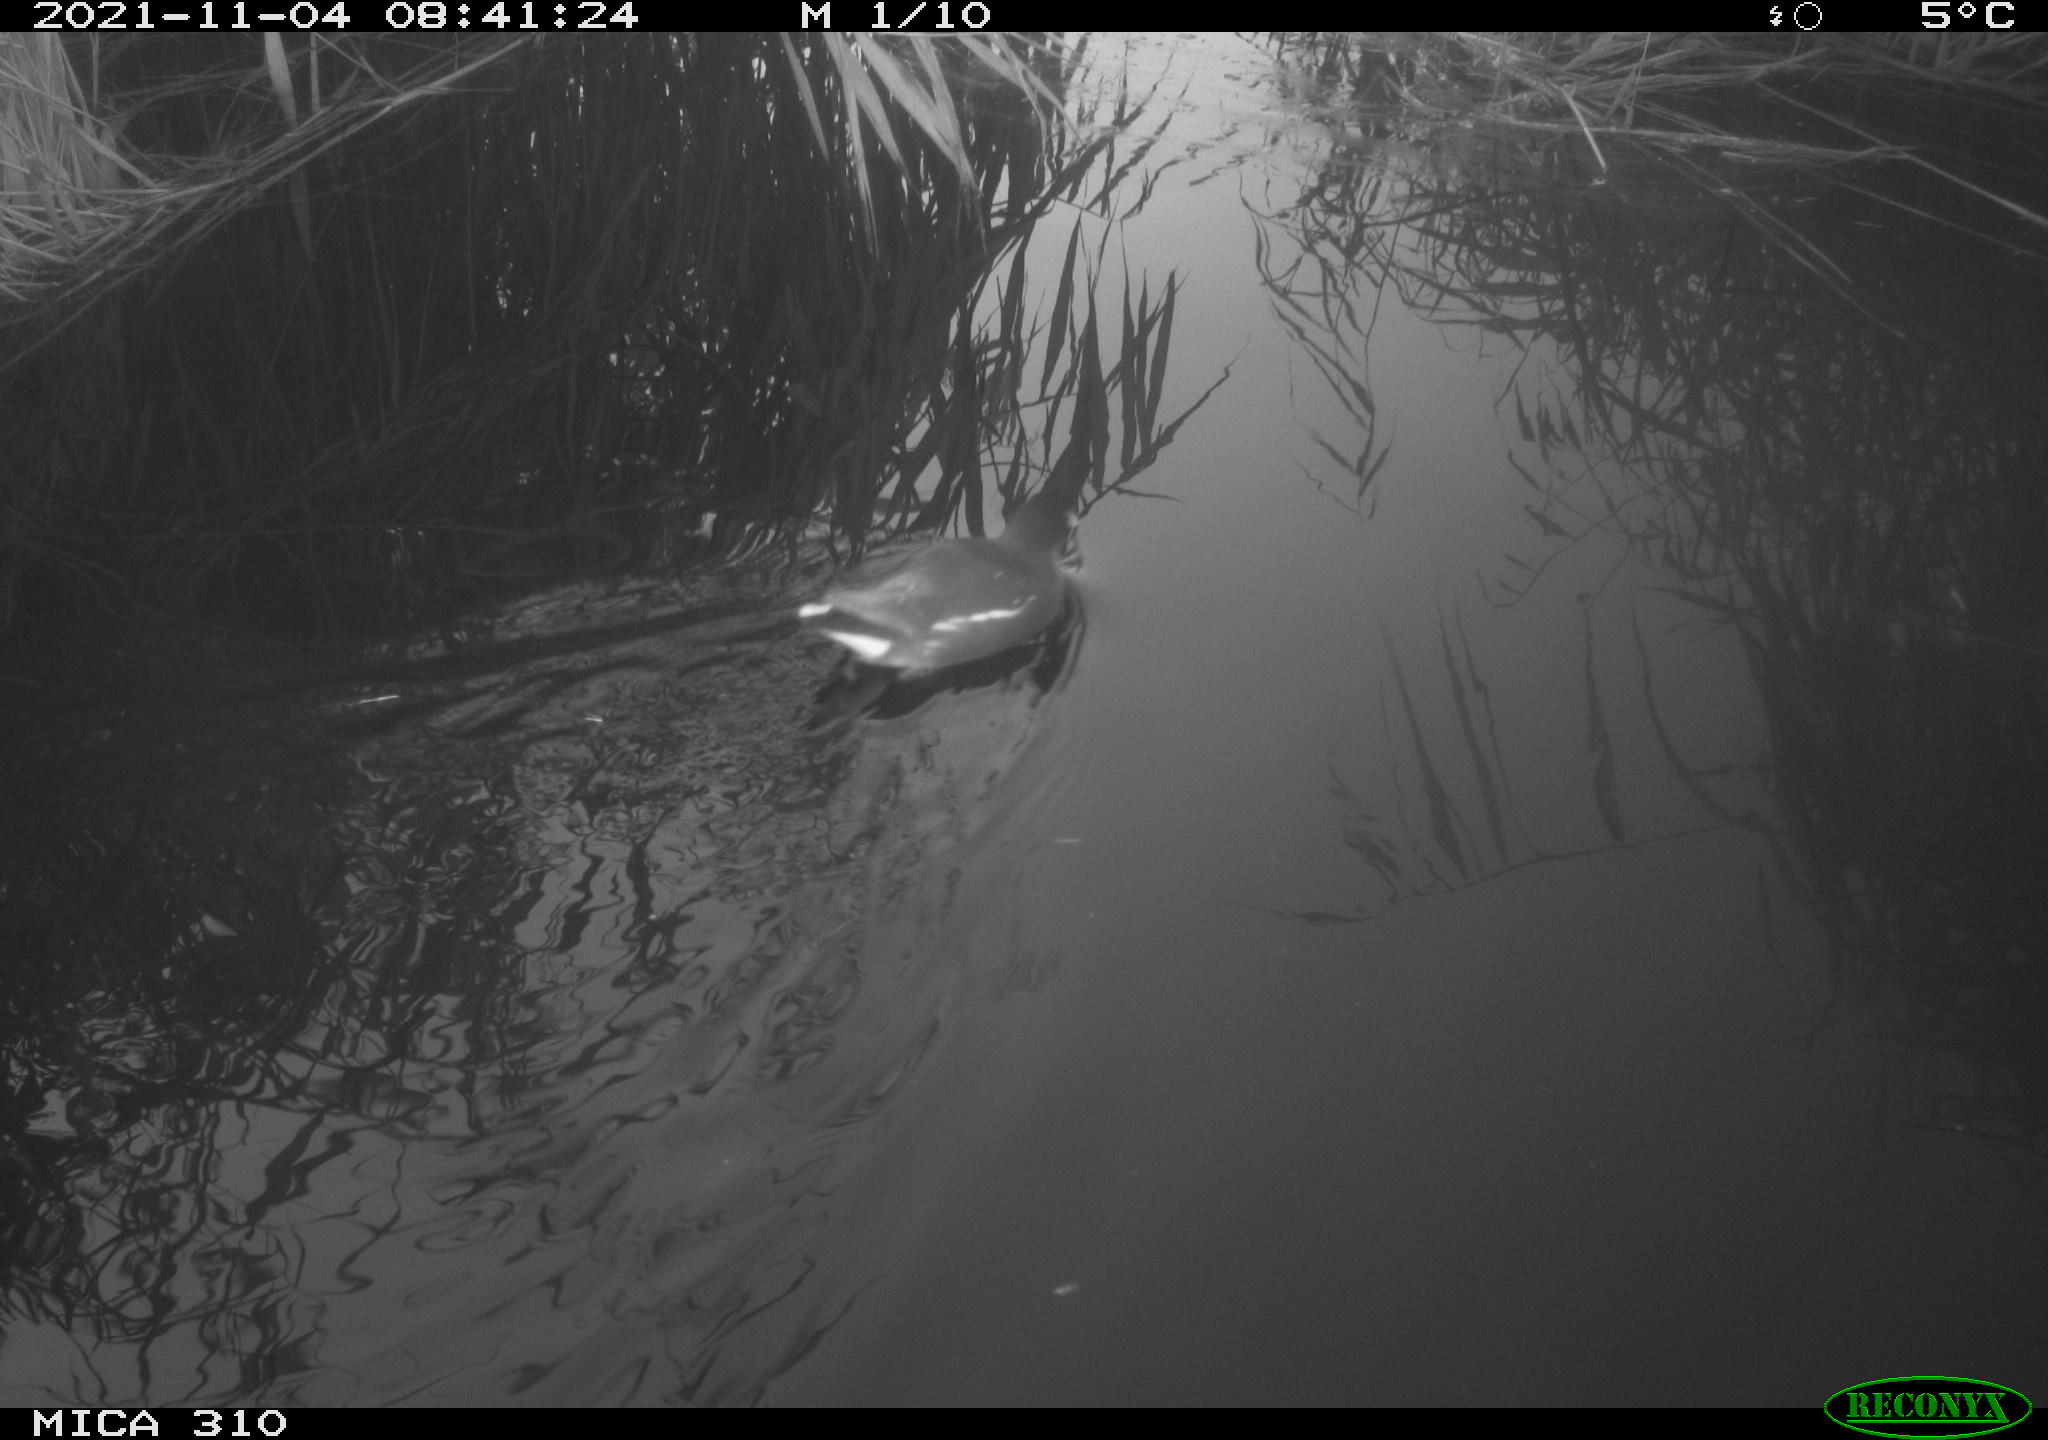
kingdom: Animalia
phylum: Chordata
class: Aves
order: Gruiformes
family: Rallidae
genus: Gallinula
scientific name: Gallinula chloropus
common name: Common moorhen
